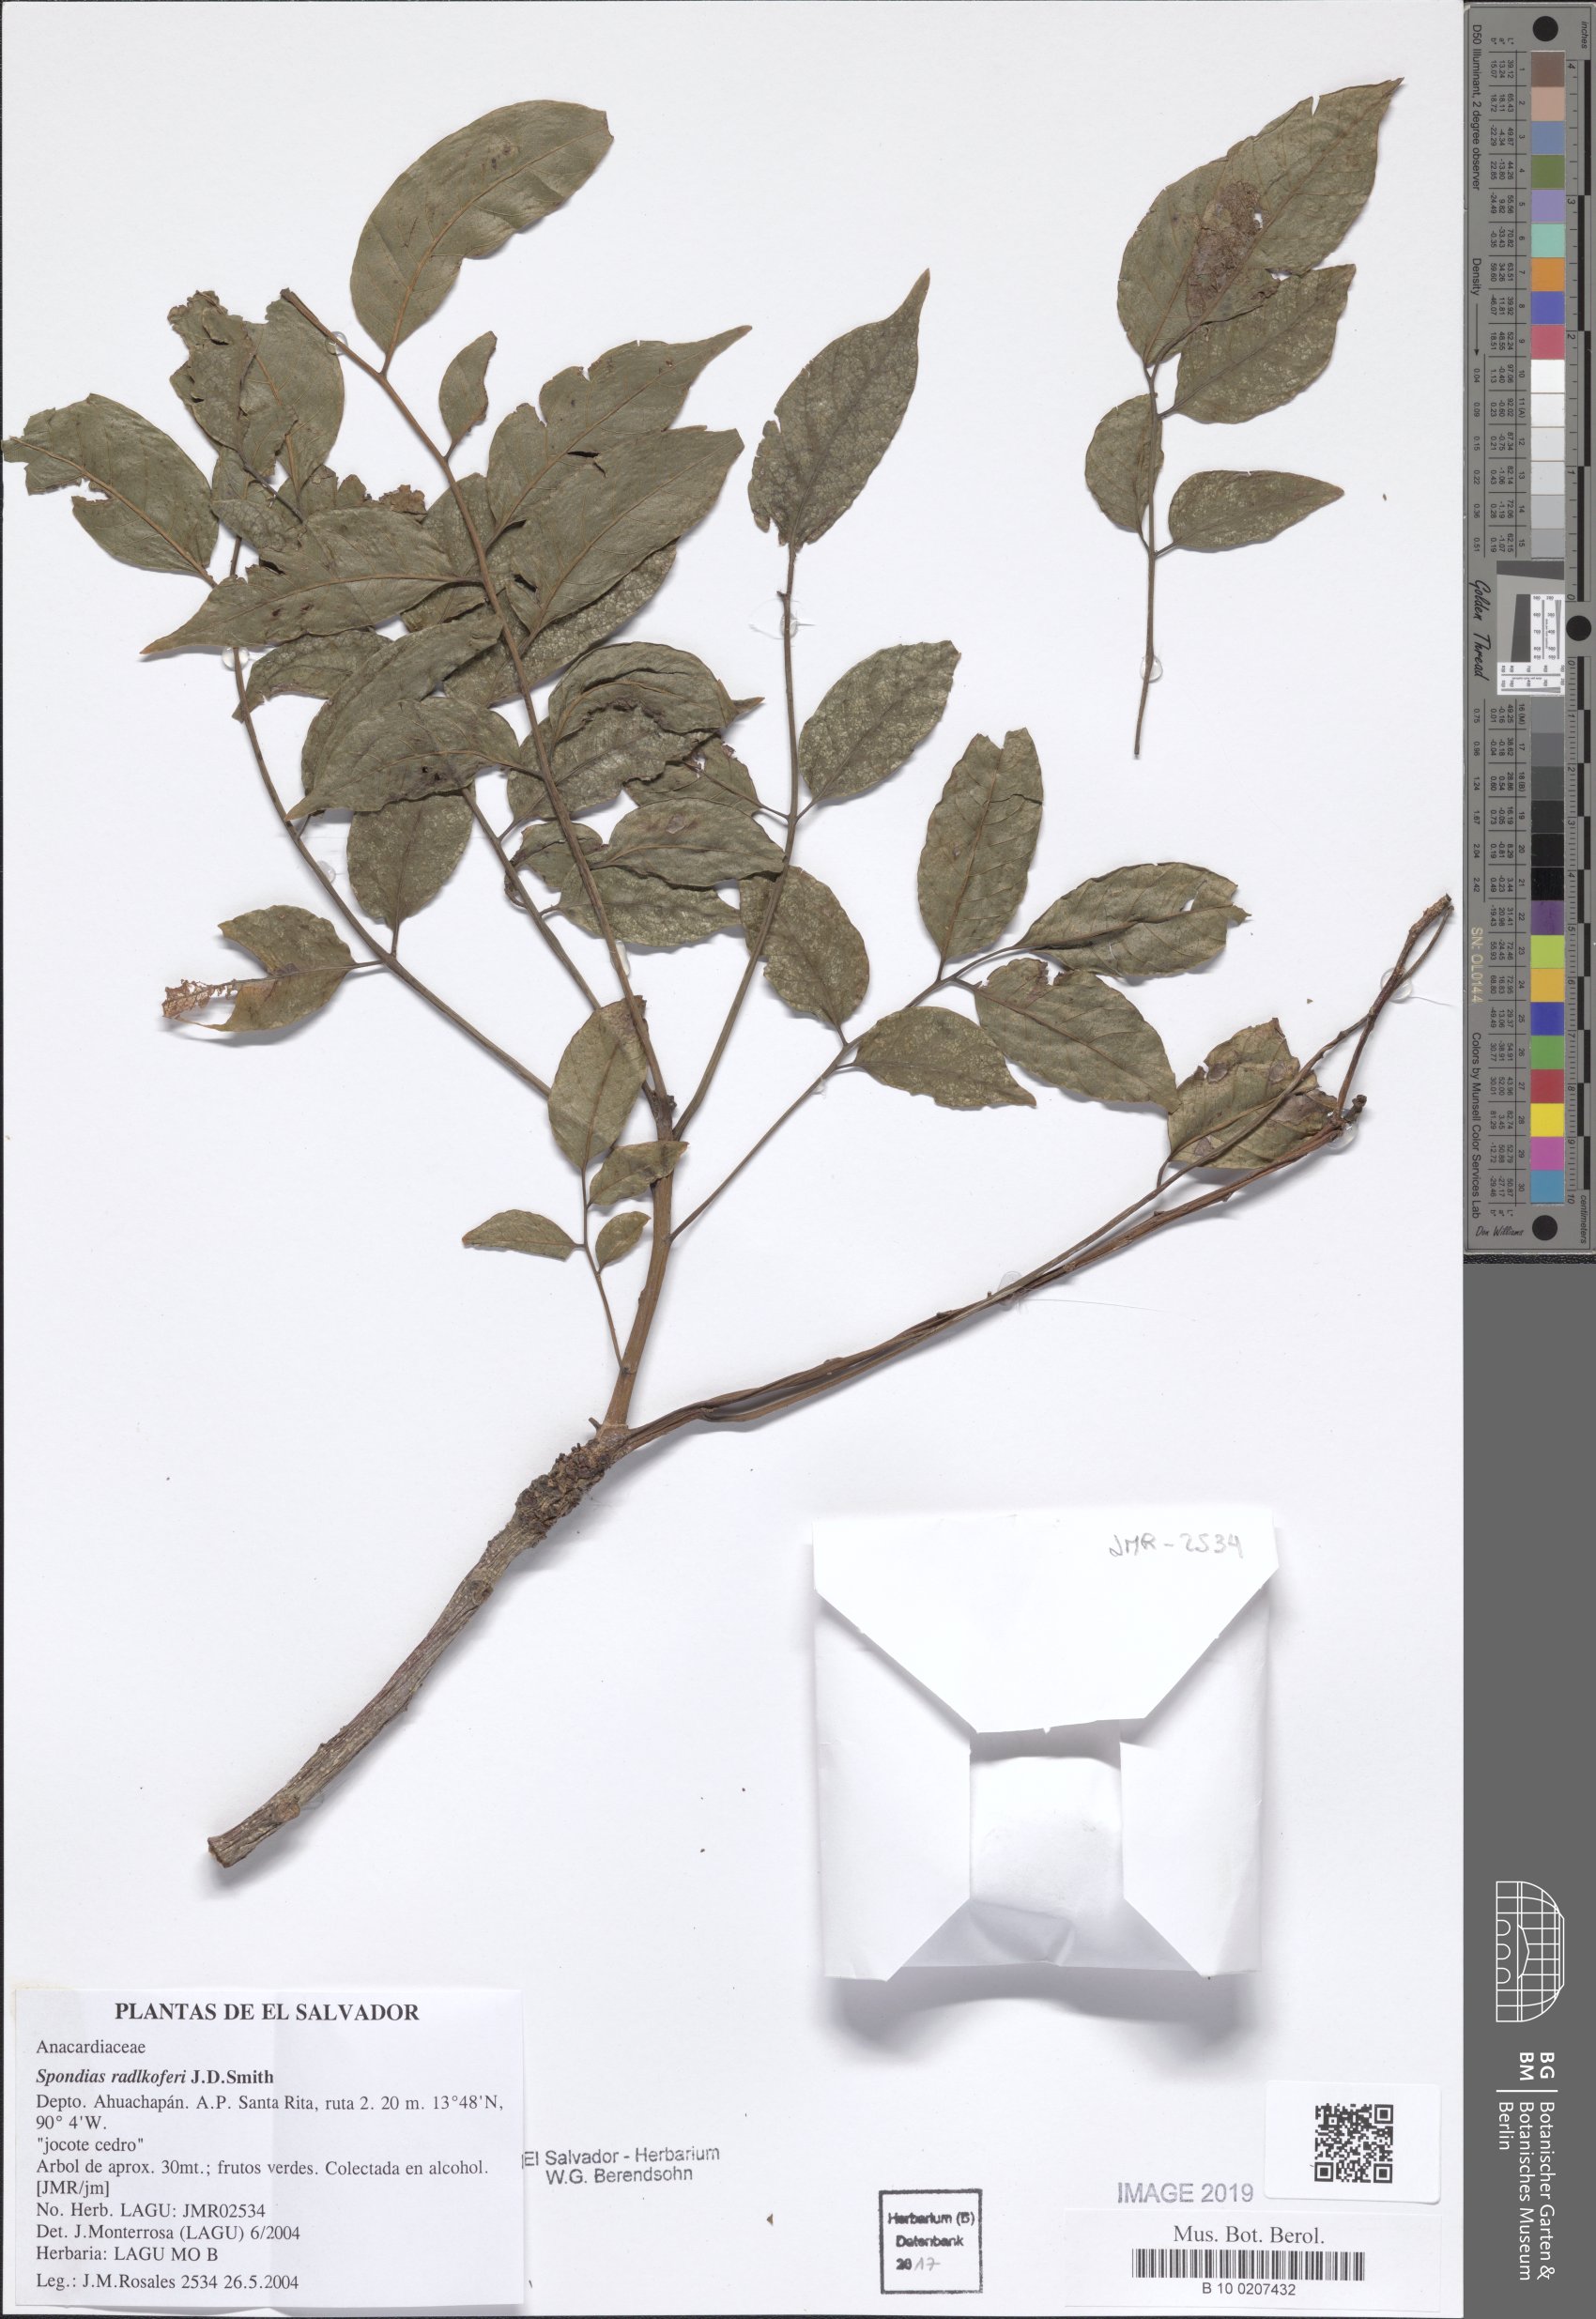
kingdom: Plantae
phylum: Tracheophyta
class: Magnoliopsida
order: Sapindales
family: Anacardiaceae
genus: Spondias
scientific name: Spondias radlkoferi
